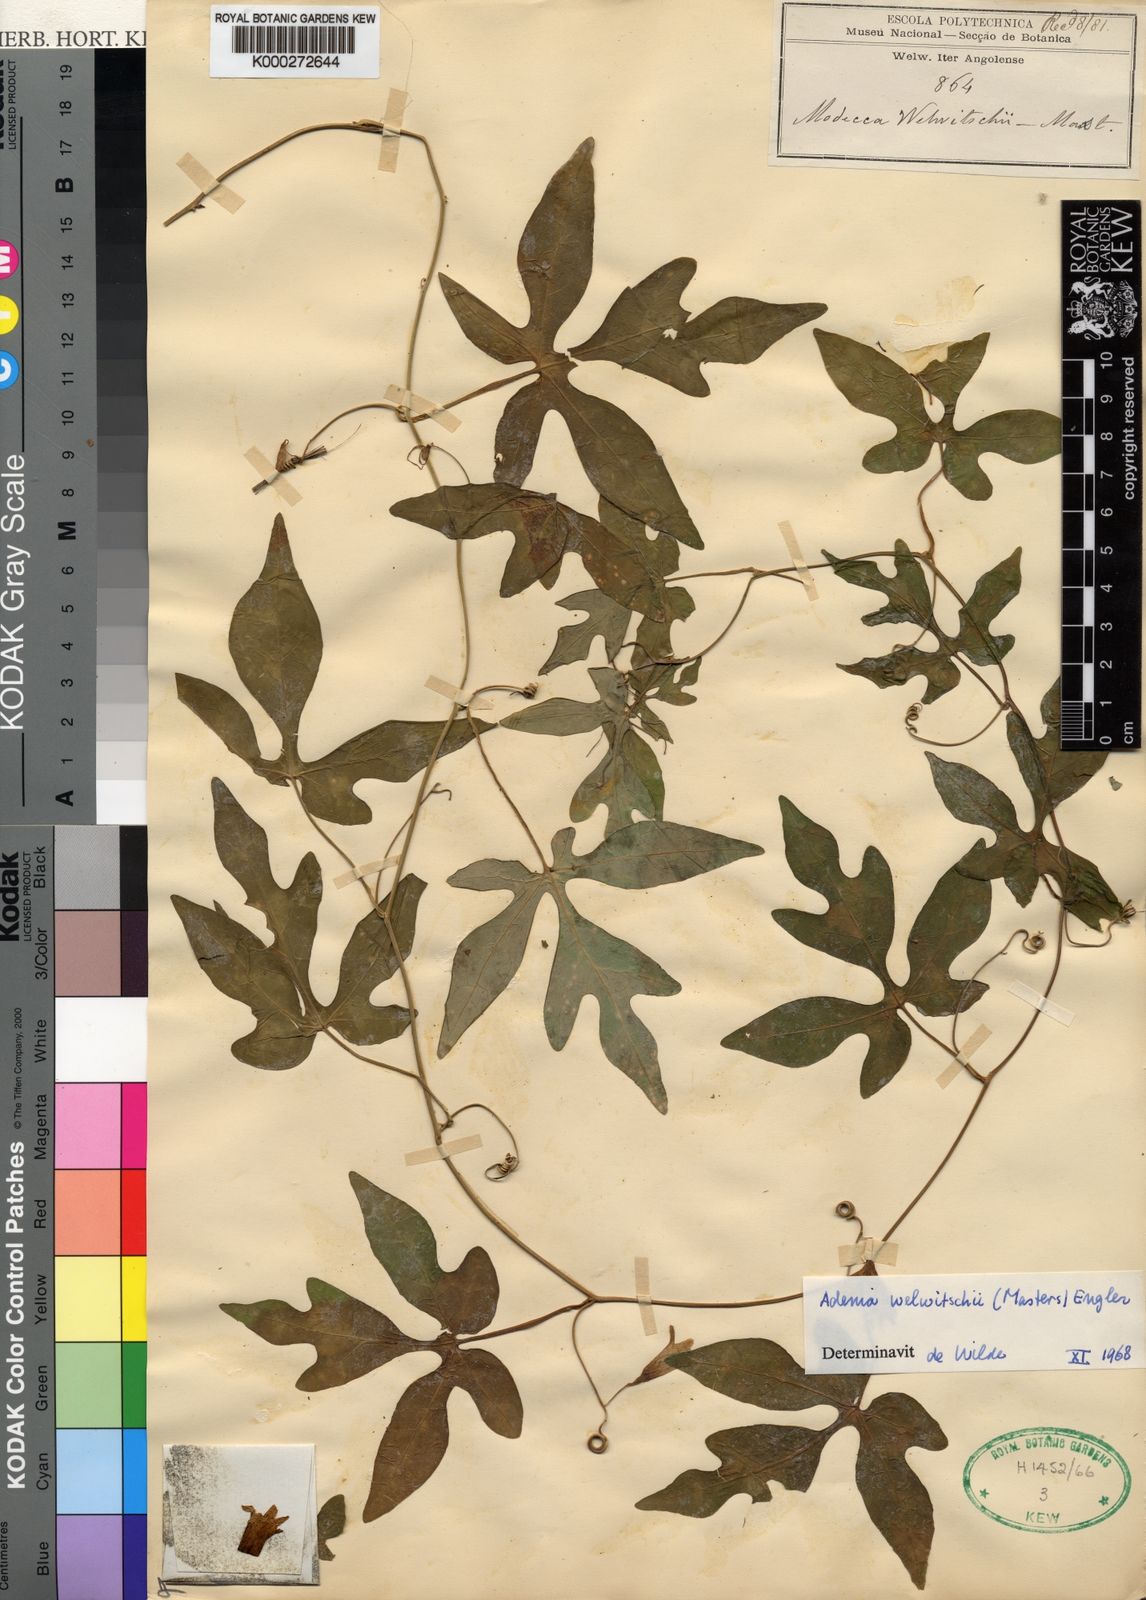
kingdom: Plantae
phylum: Tracheophyta
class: Magnoliopsida
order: Malpighiales
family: Passifloraceae
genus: Adenia
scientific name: Adenia welwitschii
